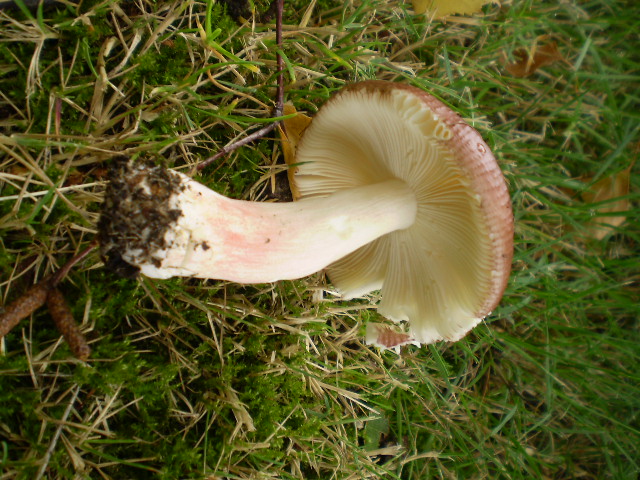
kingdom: Fungi
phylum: Basidiomycota
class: Agaricomycetes
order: Russulales
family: Russulaceae
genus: Russula
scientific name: Russula nitida
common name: året skørhat
